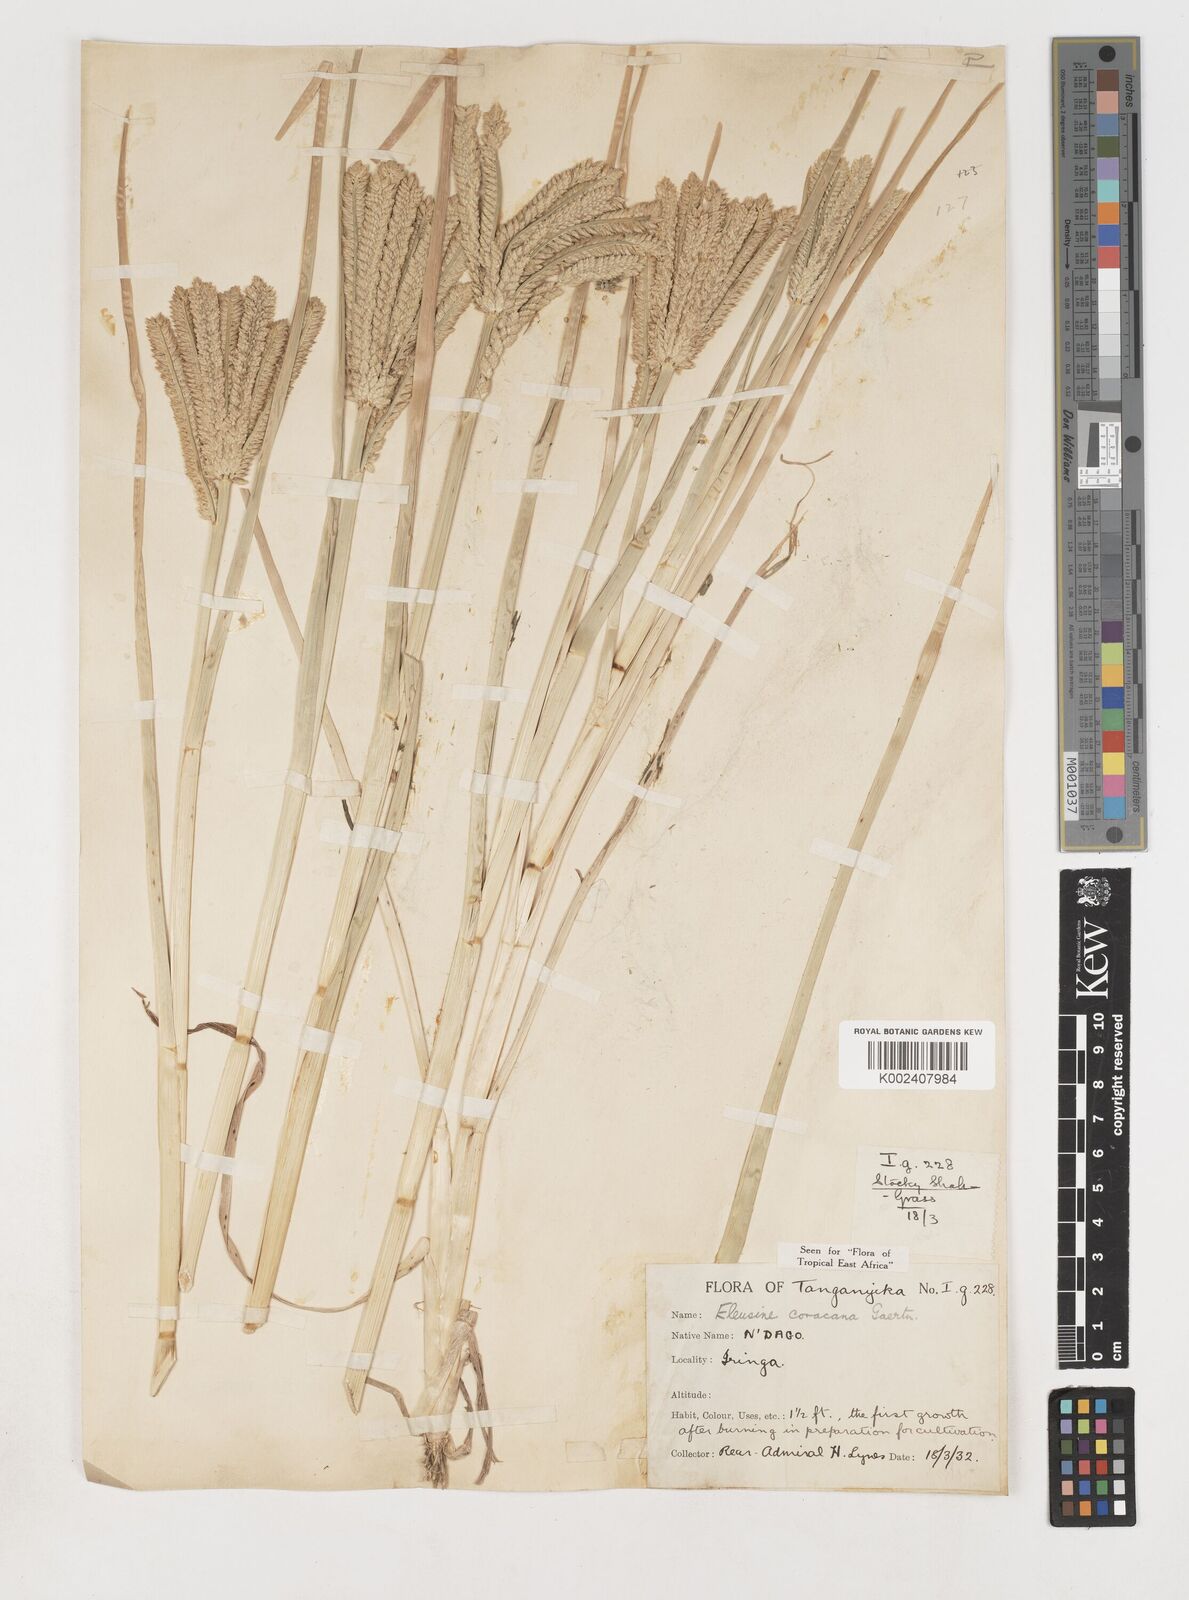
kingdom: Plantae
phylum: Tracheophyta
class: Liliopsida
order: Poales
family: Poaceae
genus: Eleusine
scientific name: Eleusine coracana
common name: Finger millet
